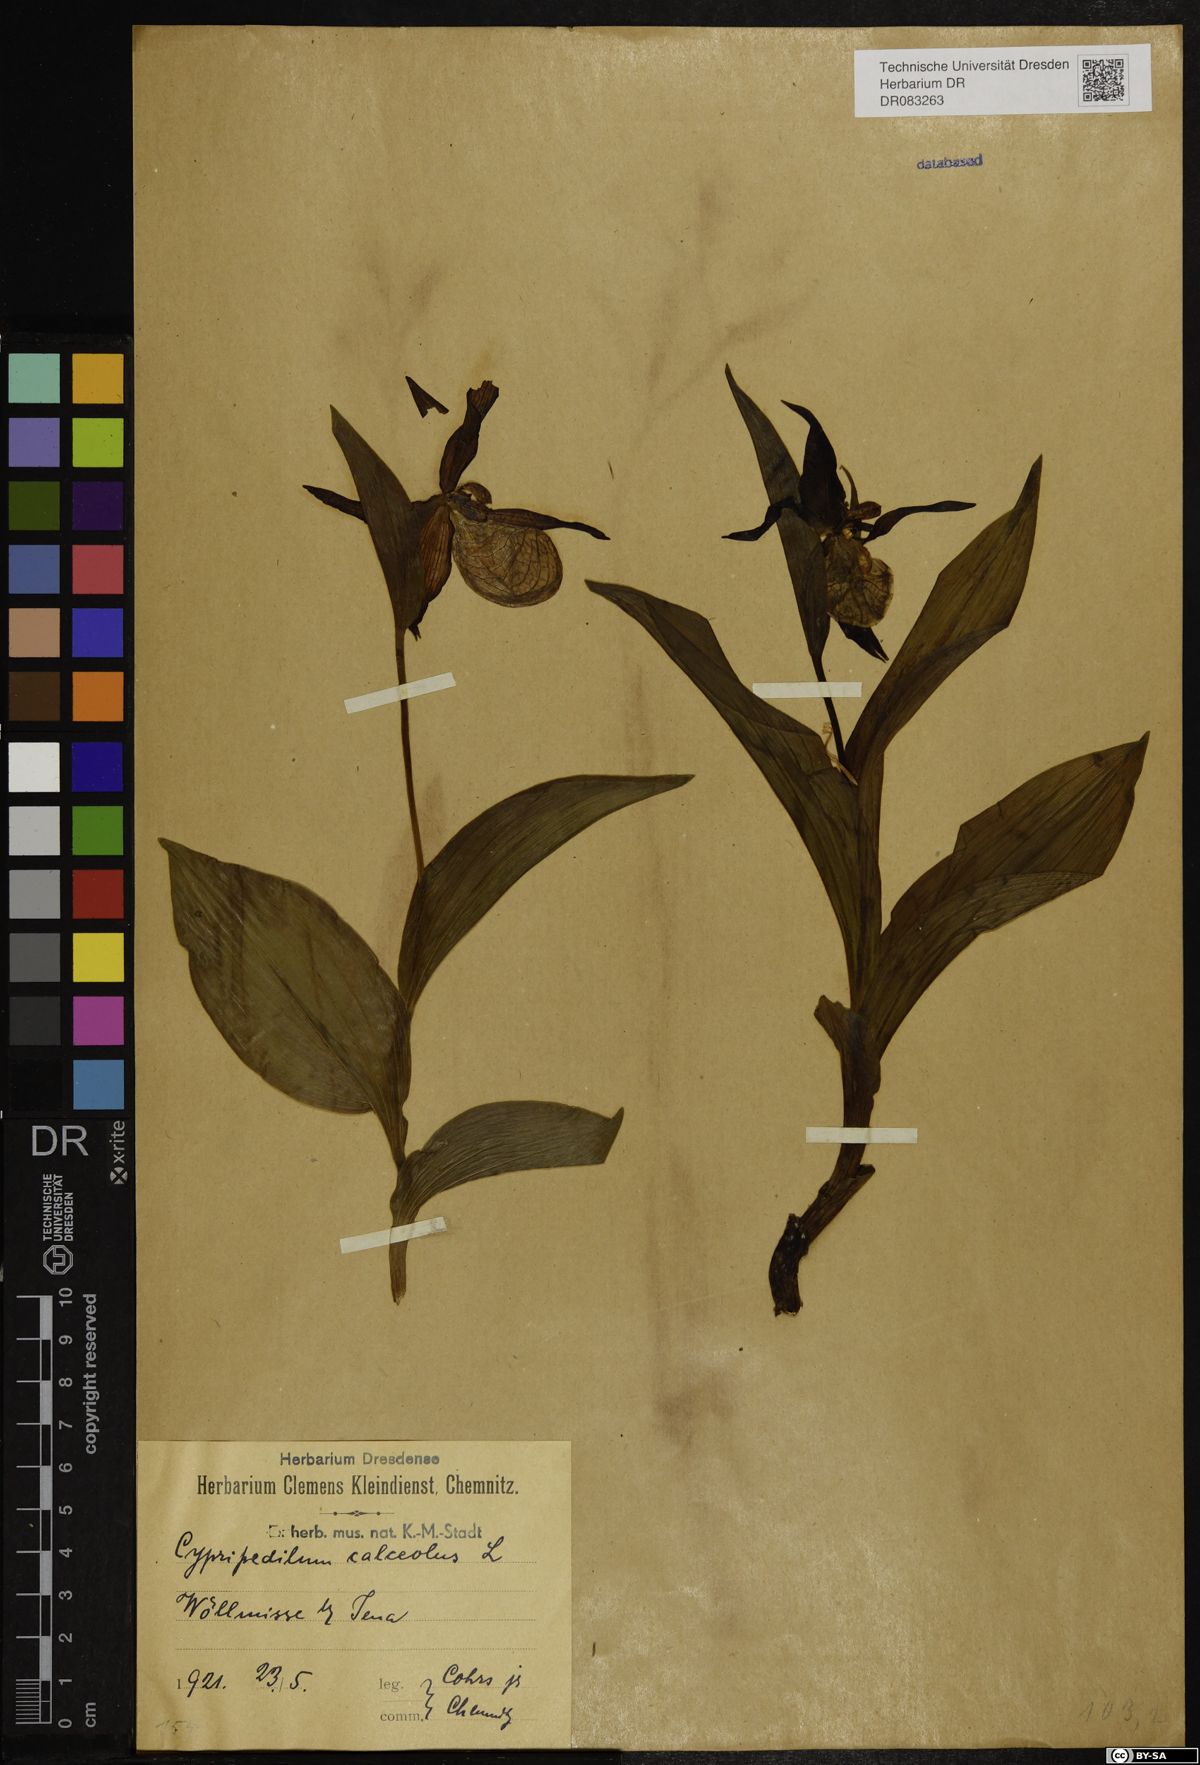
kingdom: Plantae
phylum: Tracheophyta
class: Liliopsida
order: Asparagales
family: Orchidaceae
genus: Cypripedium
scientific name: Cypripedium calceolus
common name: Lady's-slipper
